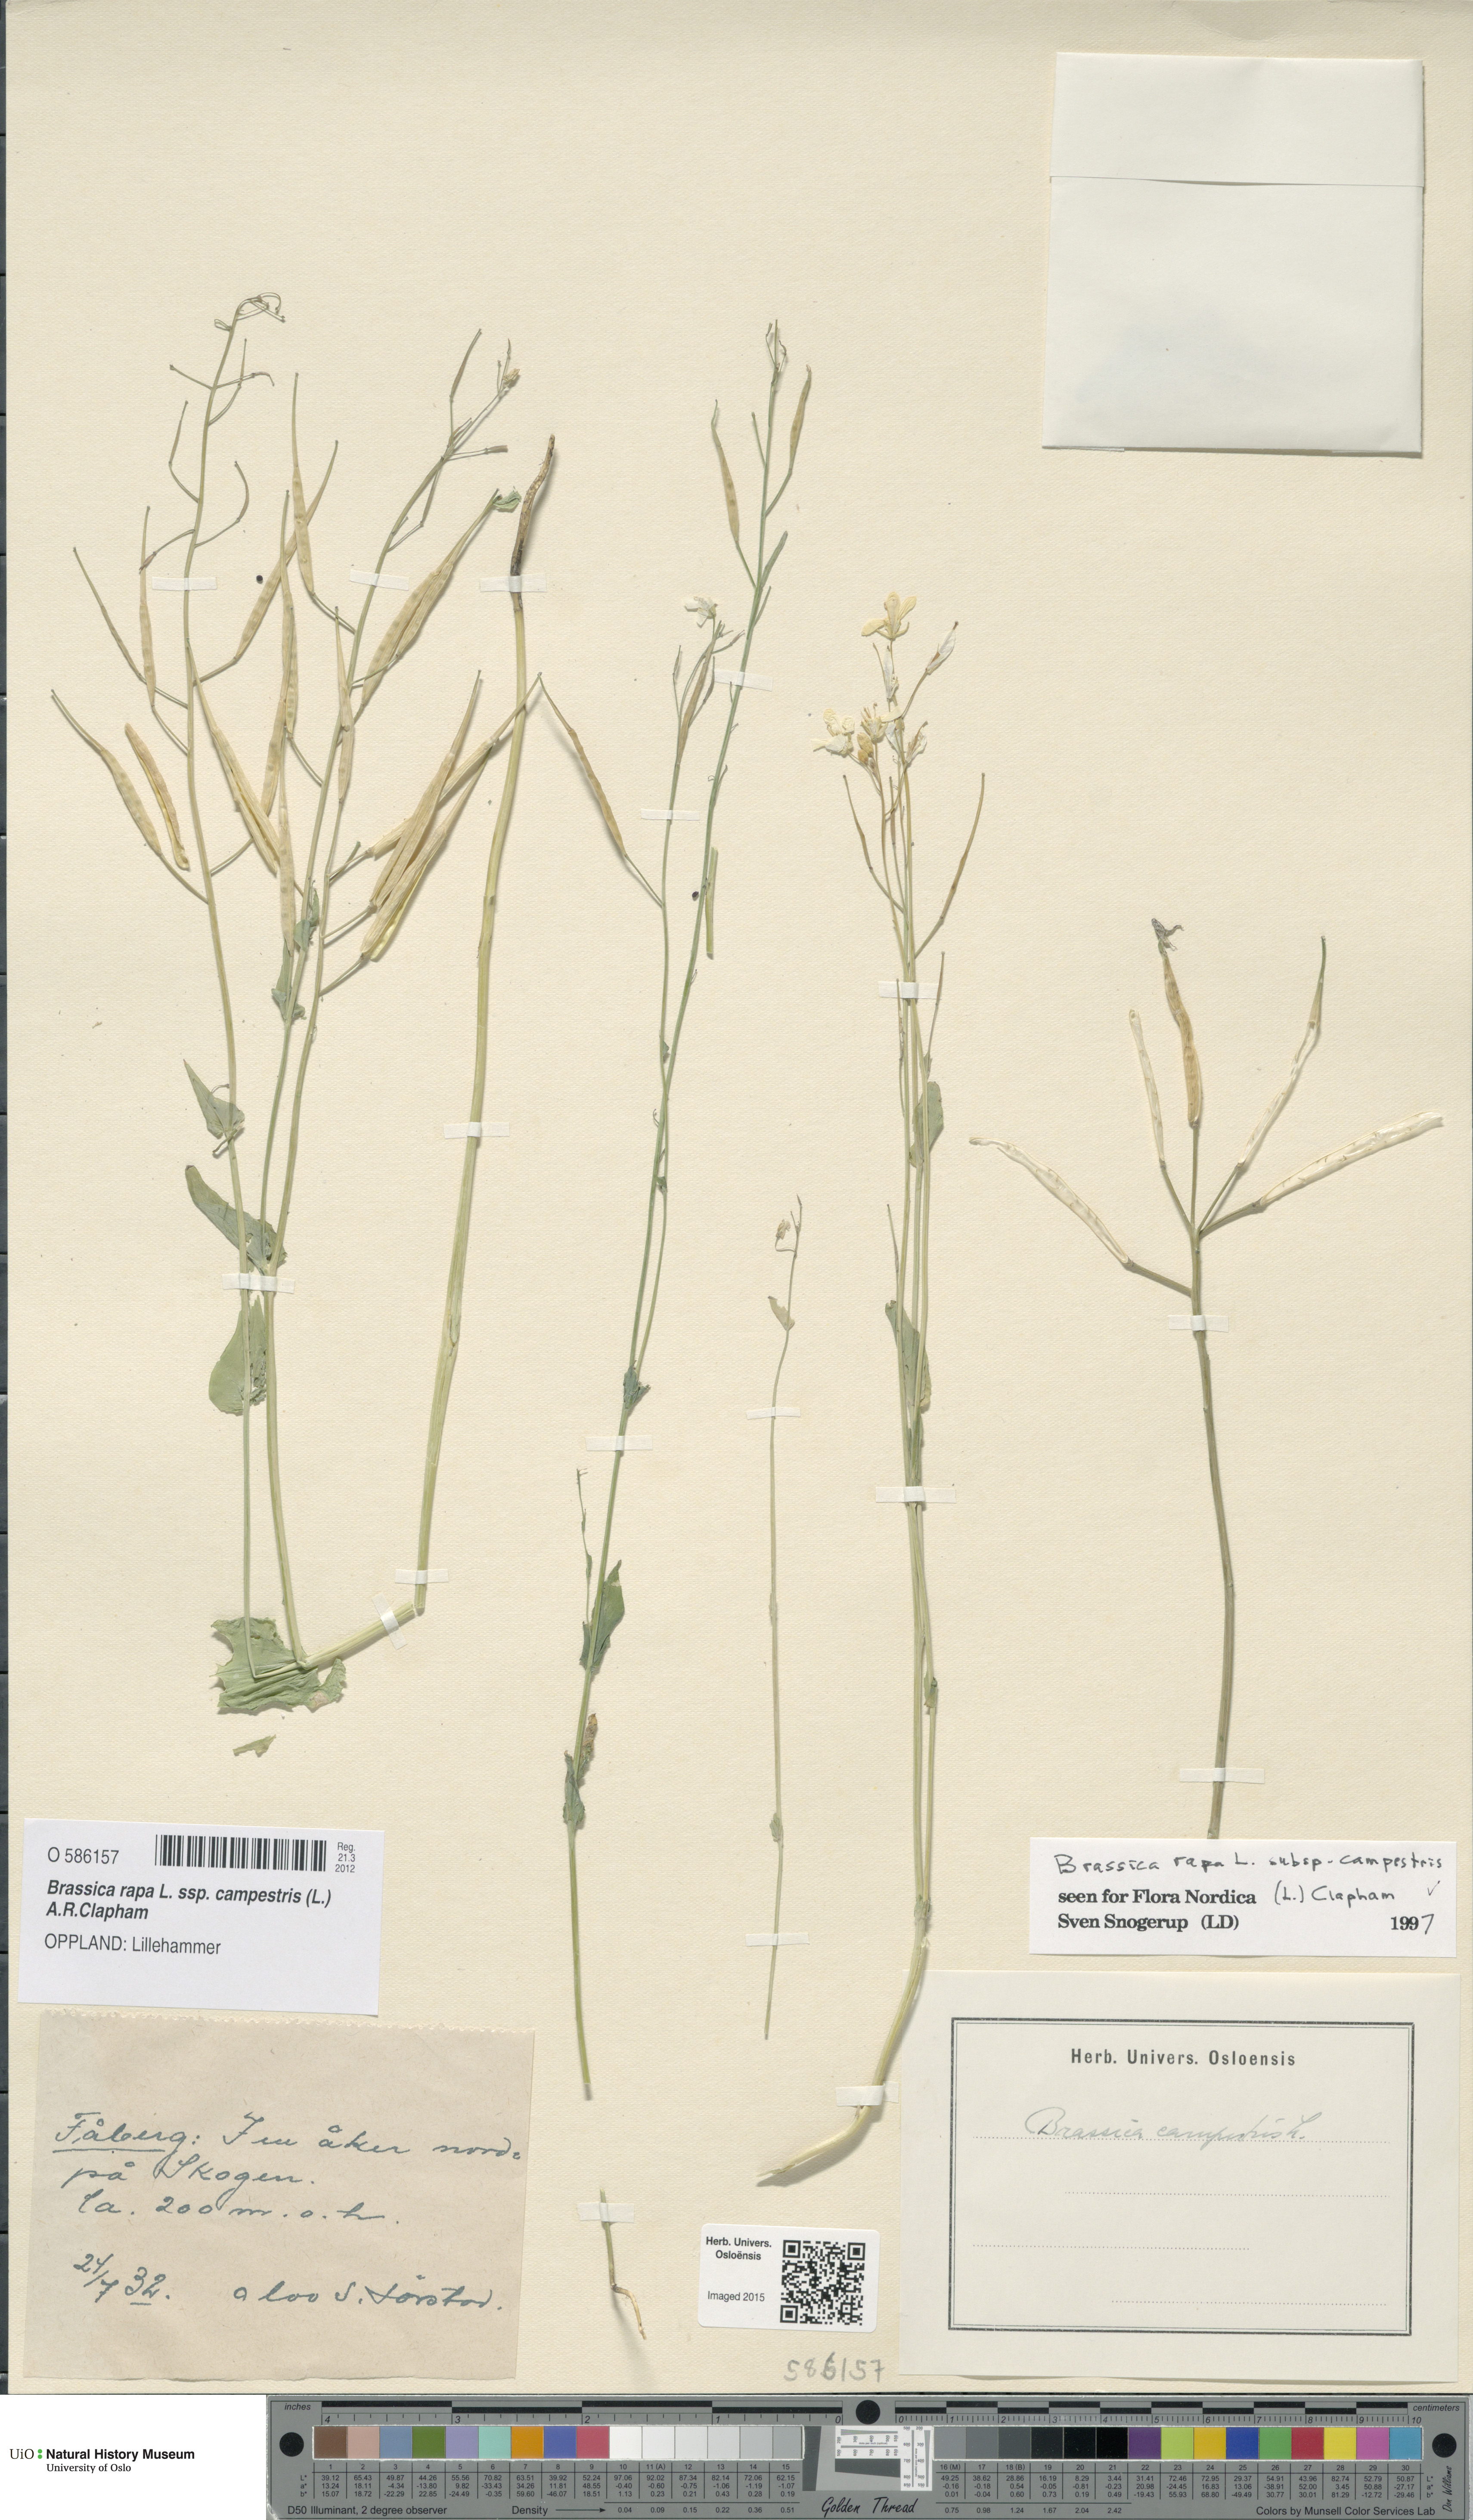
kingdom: Plantae
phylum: Tracheophyta
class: Magnoliopsida
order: Brassicales
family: Brassicaceae
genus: Brassica
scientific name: Brassica rapa
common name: Field mustard
